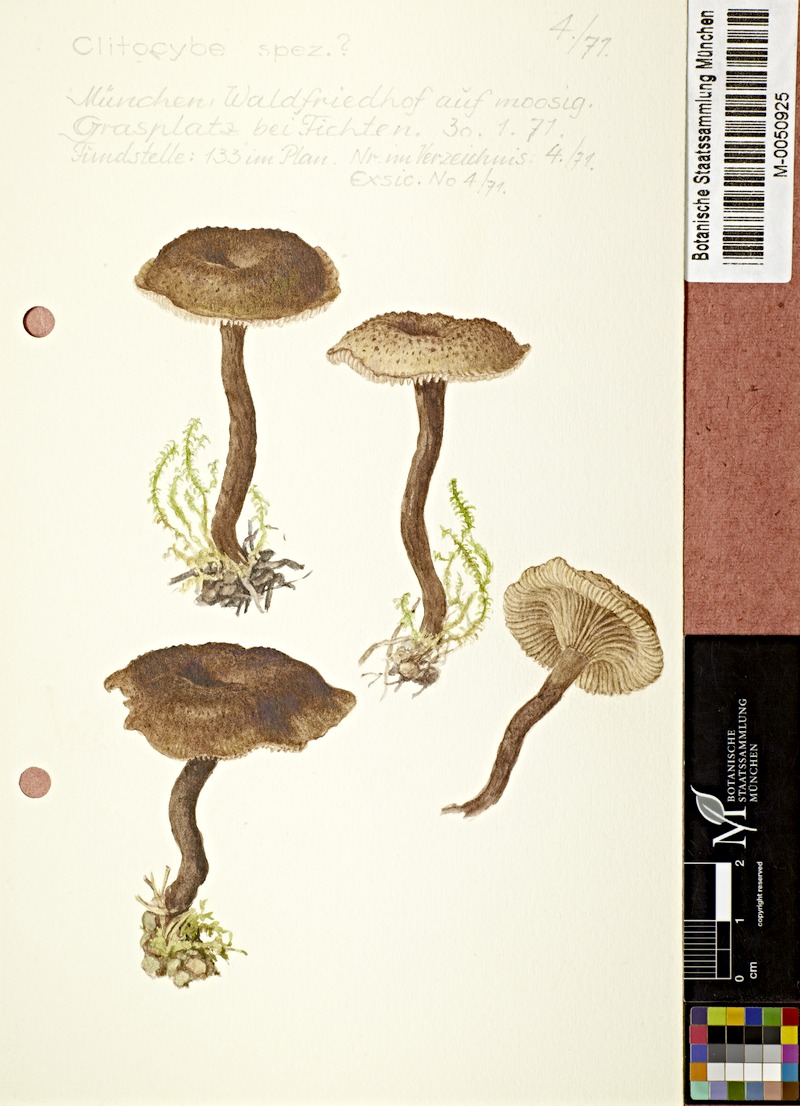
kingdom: Fungi
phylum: Basidiomycota
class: Agaricomycetes
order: Agaricales
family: Tricholomataceae
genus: Clitocybe
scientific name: Clitocybe
